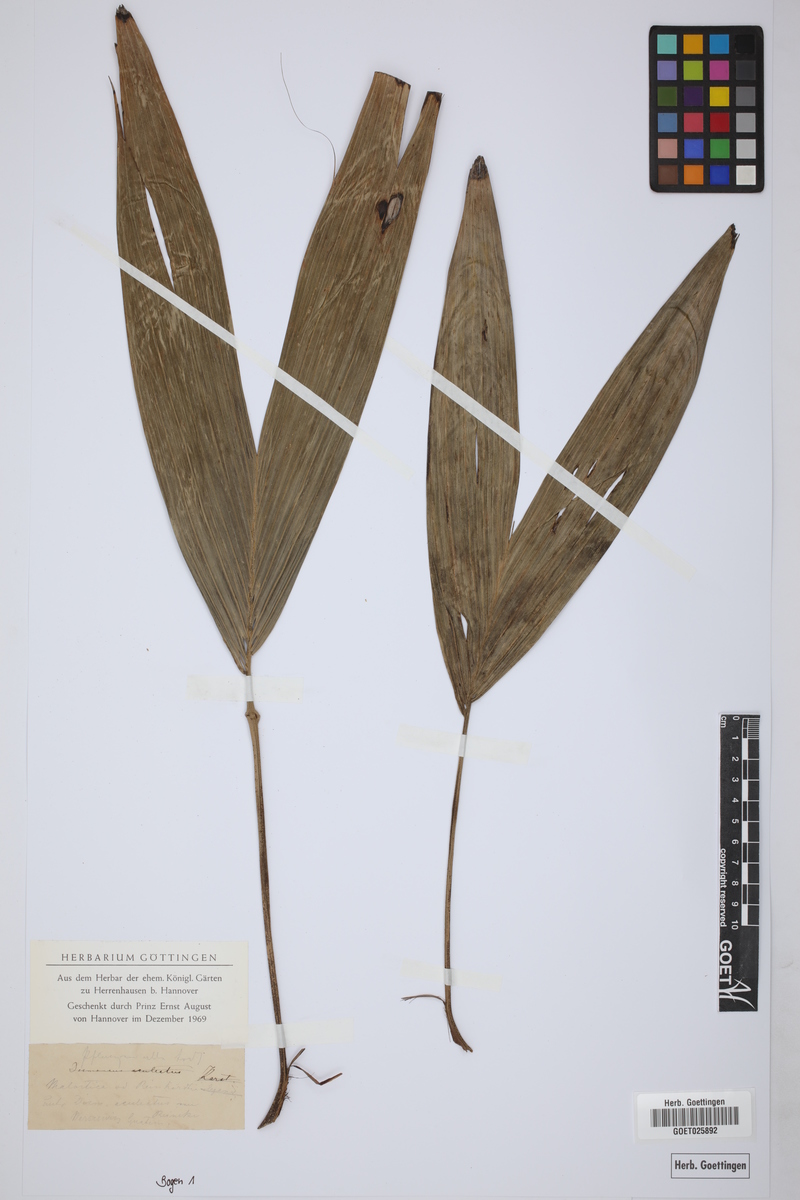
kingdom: Plantae
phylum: Tracheophyta
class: Liliopsida
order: Arecales
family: Arecaceae
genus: Reinhardtia
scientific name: Reinhardtia
